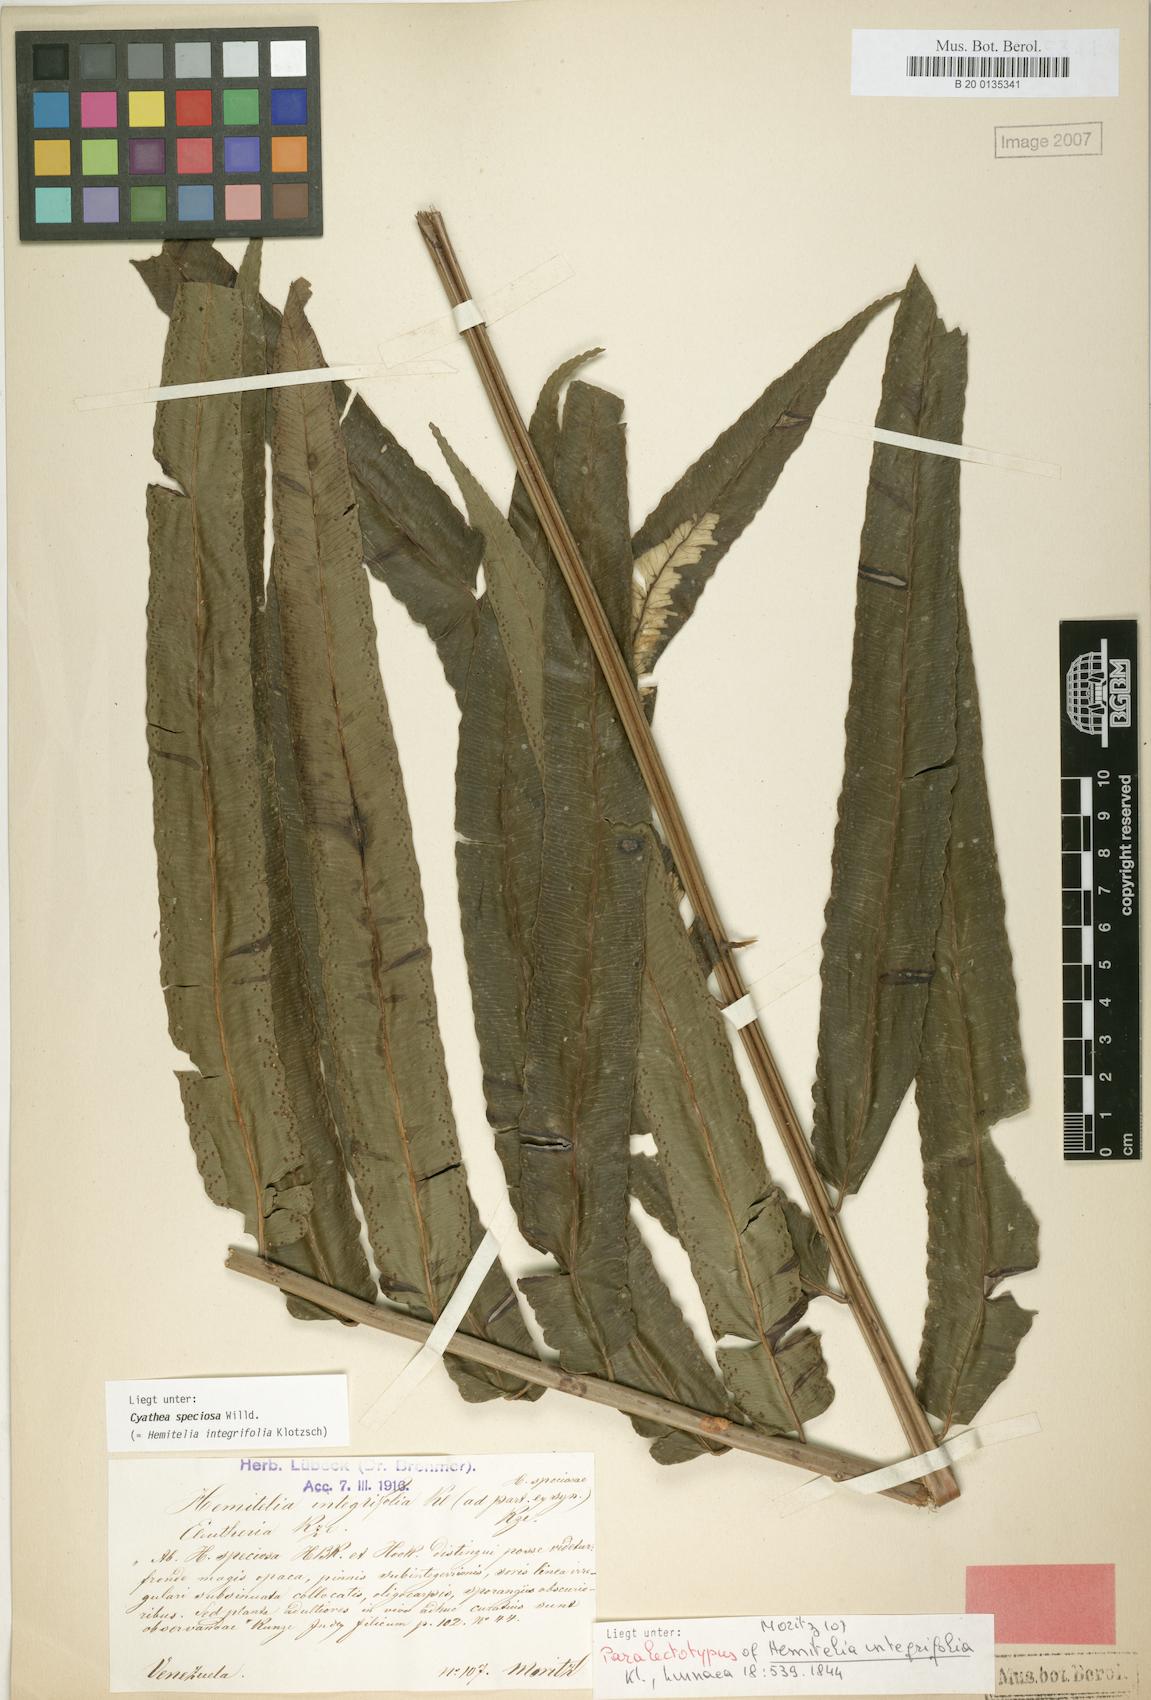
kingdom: Plantae
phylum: Tracheophyta
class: Polypodiopsida
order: Cyatheales
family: Cyatheaceae
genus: Cyathea
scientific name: Cyathea speciosa
